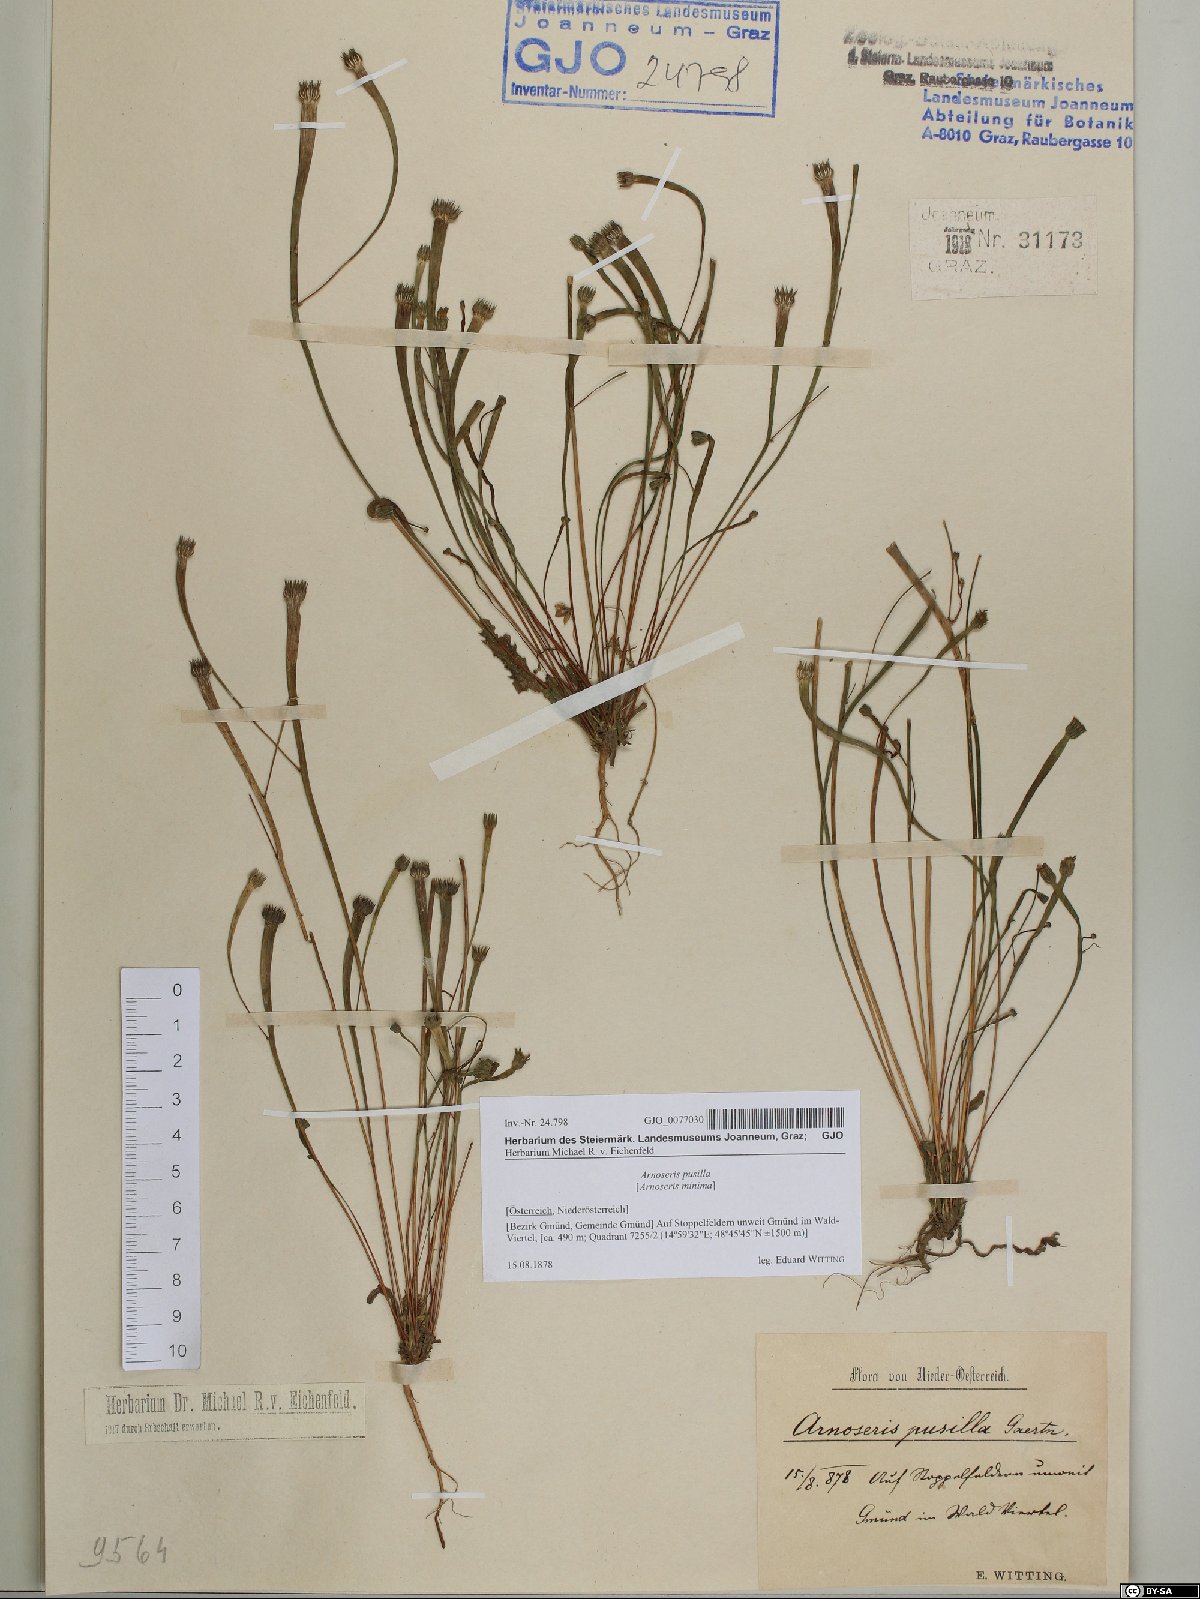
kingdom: Plantae
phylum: Tracheophyta
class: Magnoliopsida
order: Asterales
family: Asteraceae
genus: Arnoseris
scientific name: Arnoseris minima
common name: Lamb's succory
